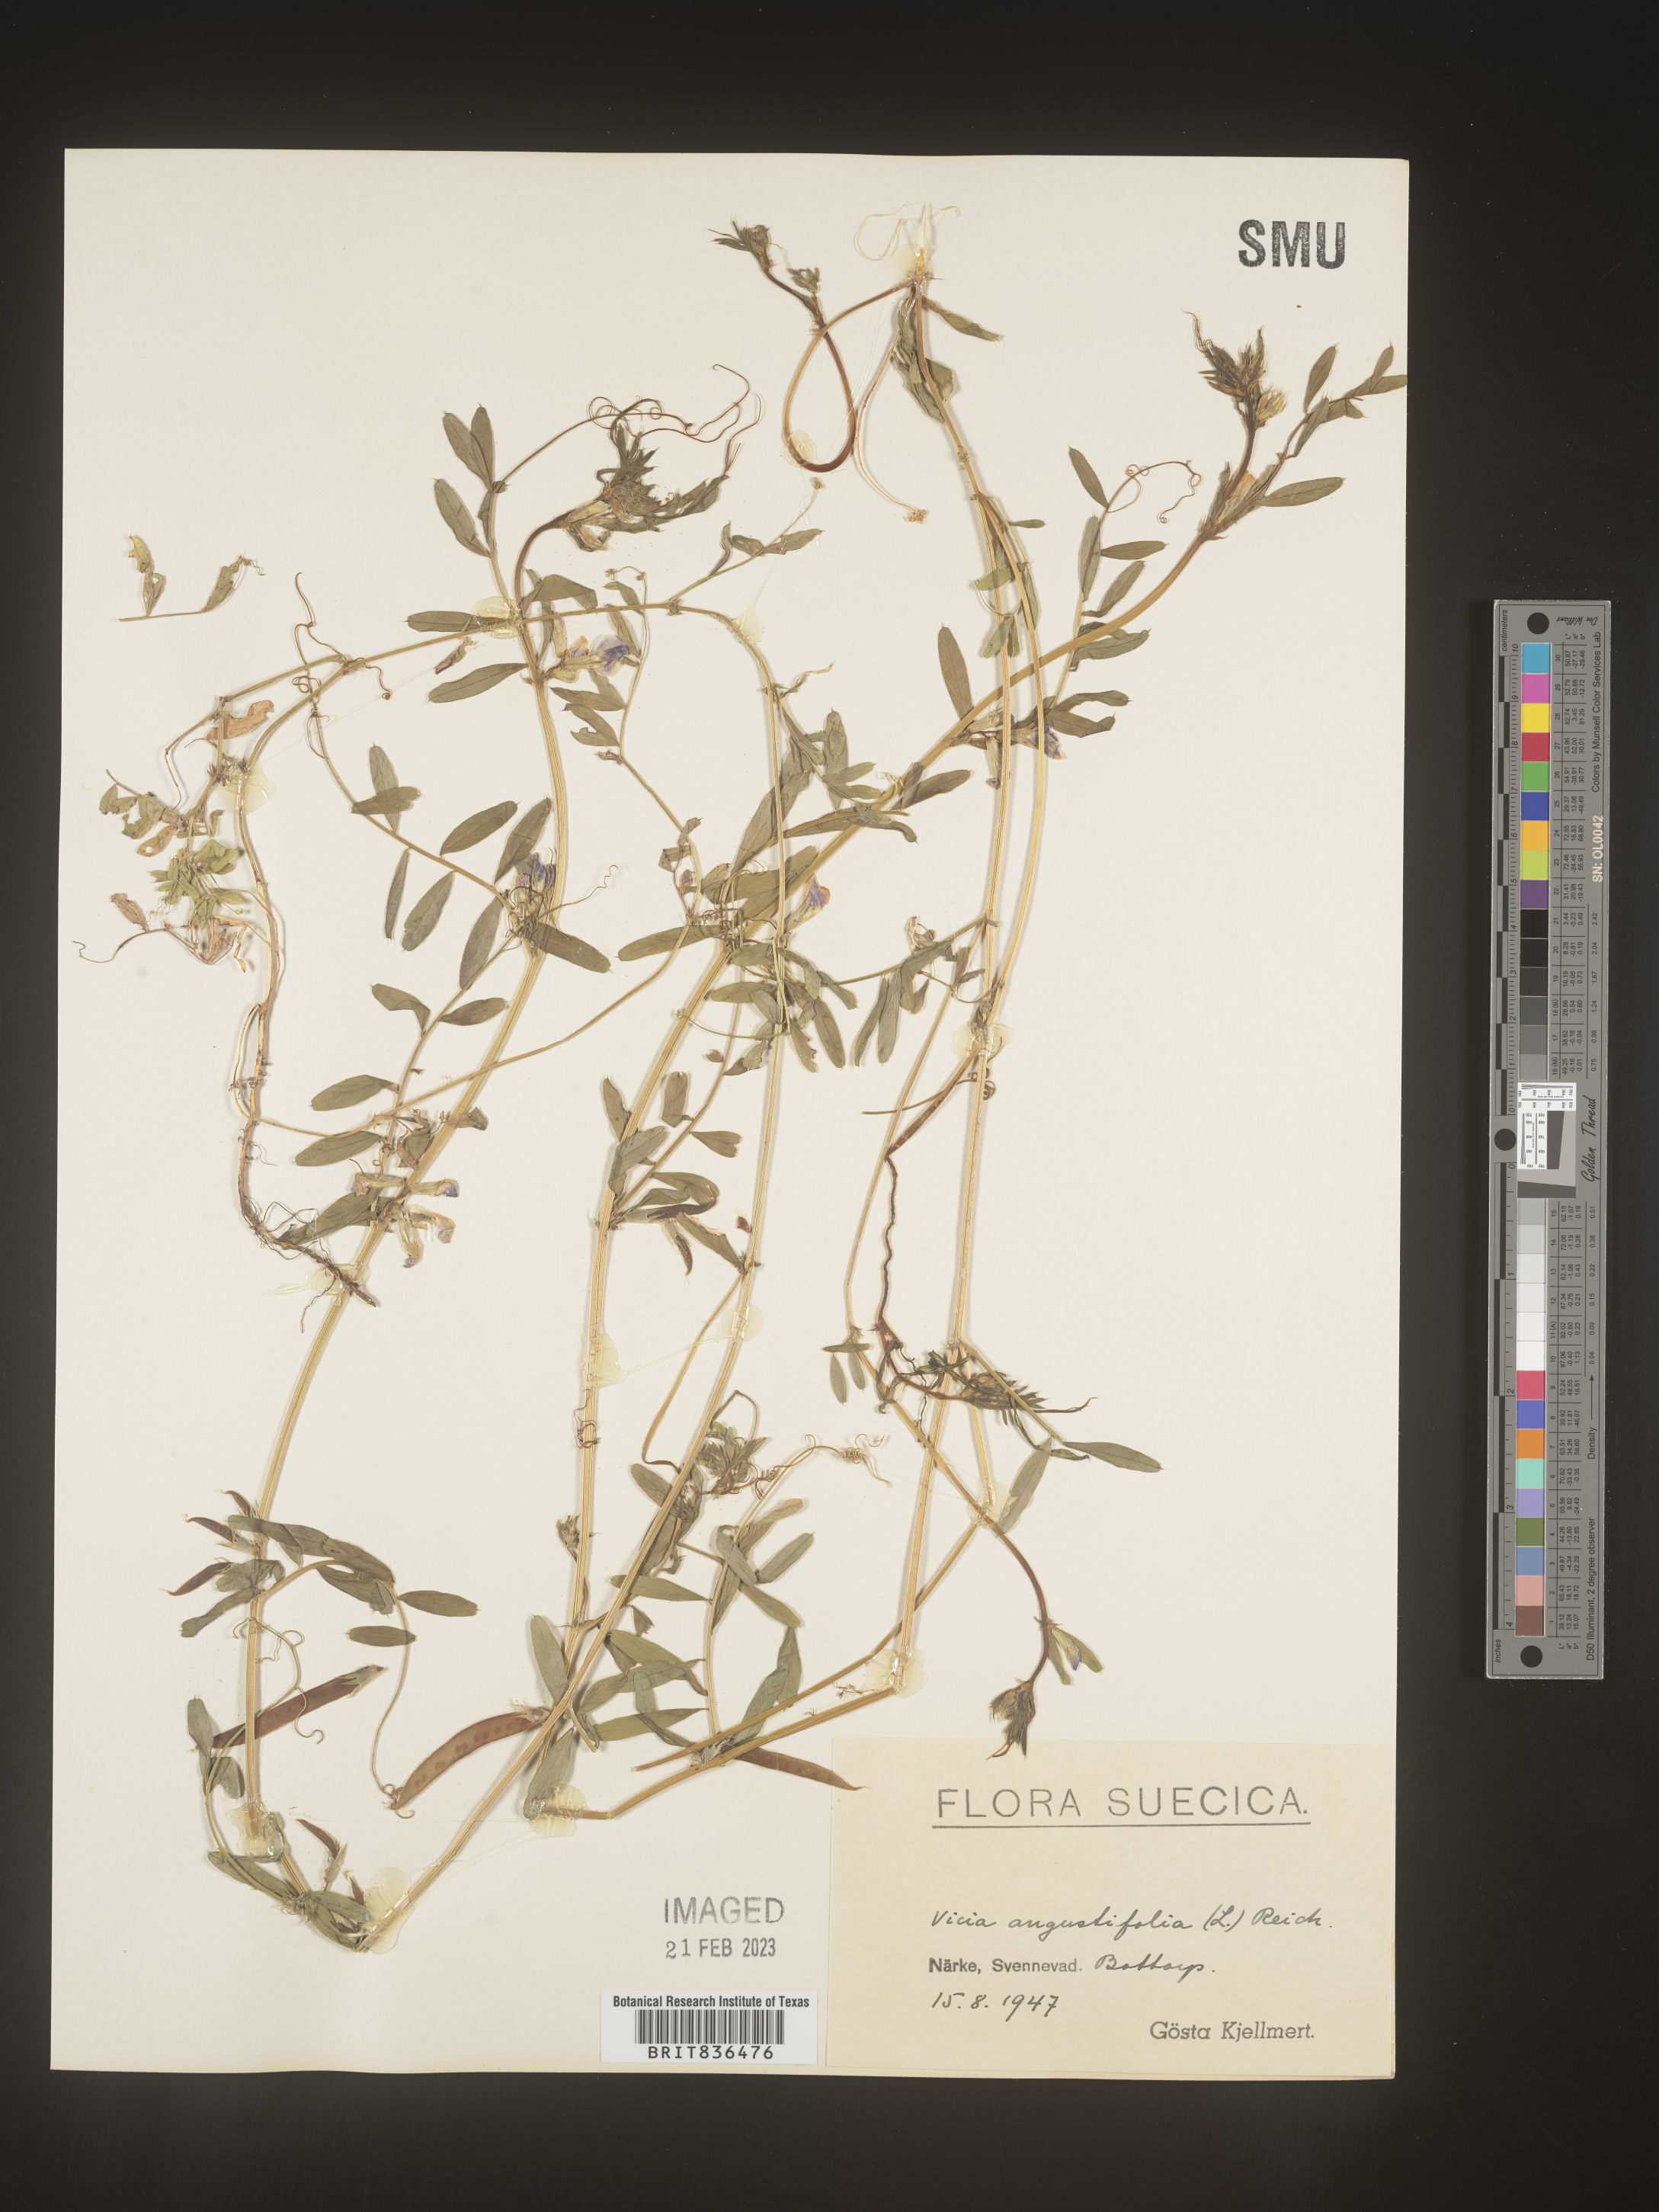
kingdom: Plantae
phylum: Tracheophyta
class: Magnoliopsida
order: Fabales
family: Fabaceae
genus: Vicia
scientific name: Vicia
